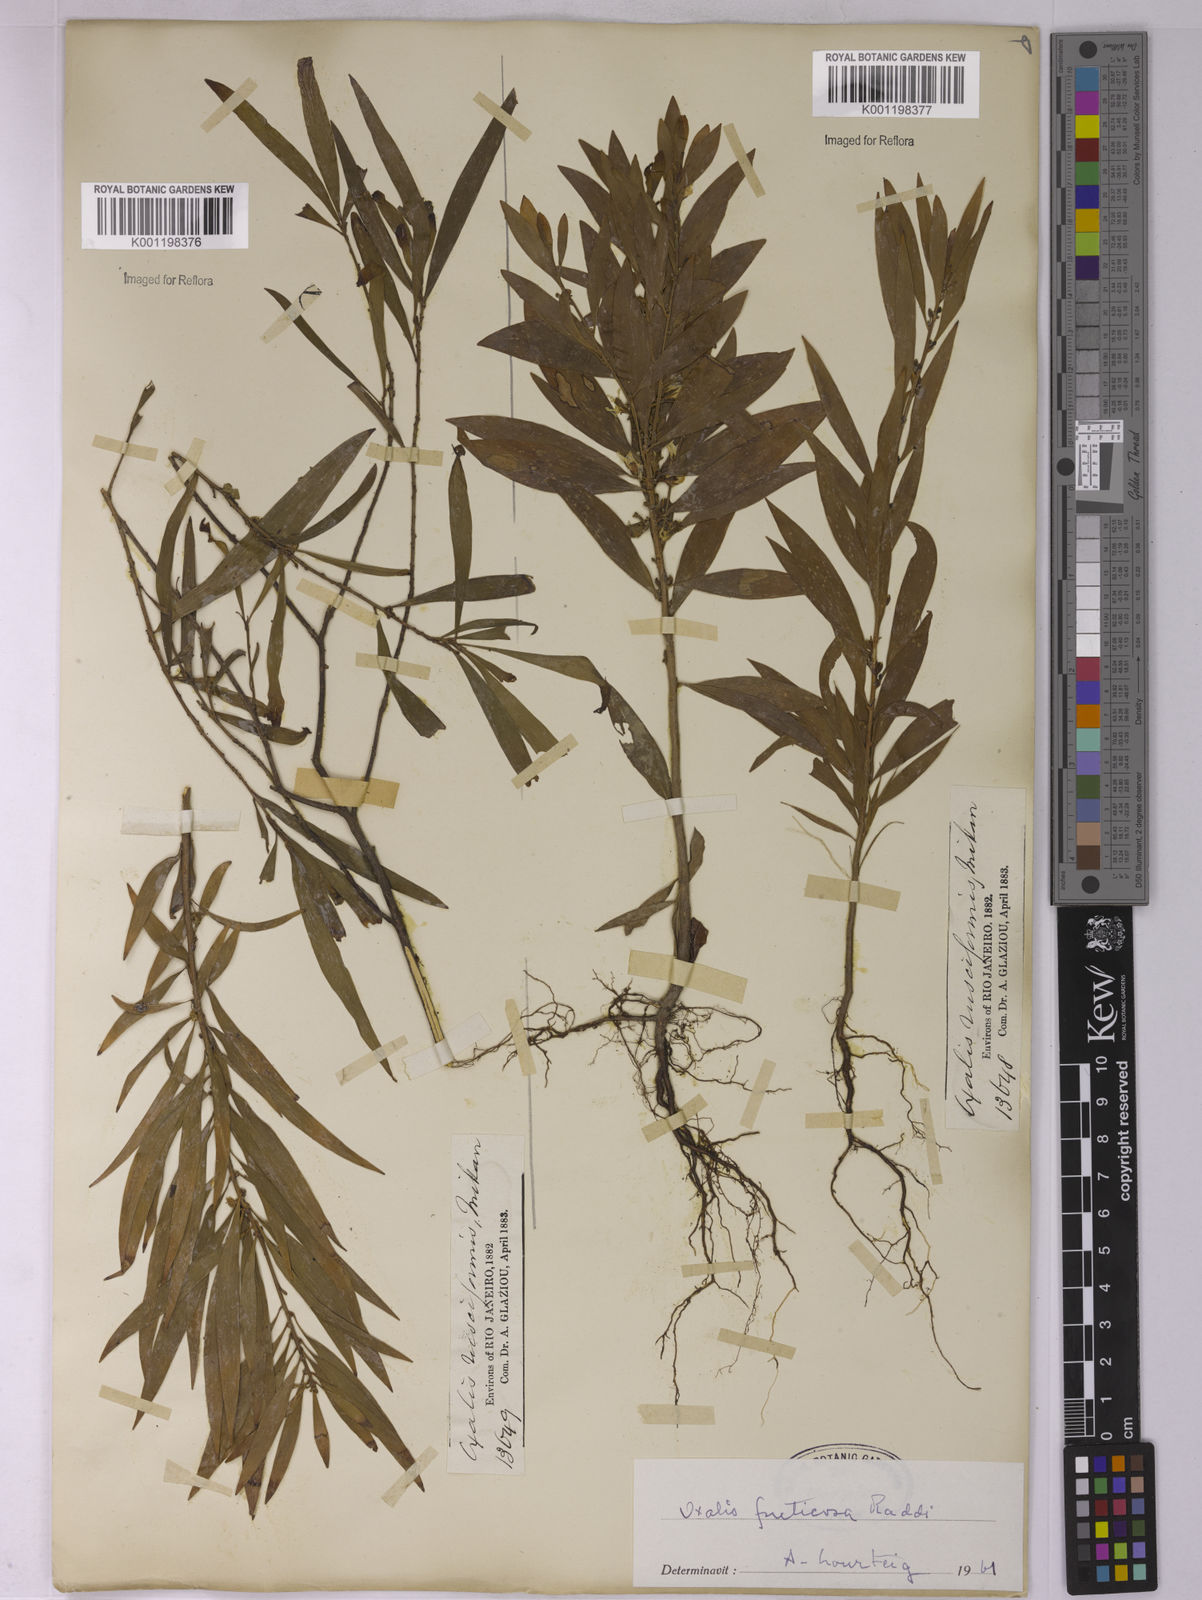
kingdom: Plantae
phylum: Tracheophyta
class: Magnoliopsida
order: Oxalidales
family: Oxalidaceae
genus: Oxalis
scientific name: Oxalis fruticosa
